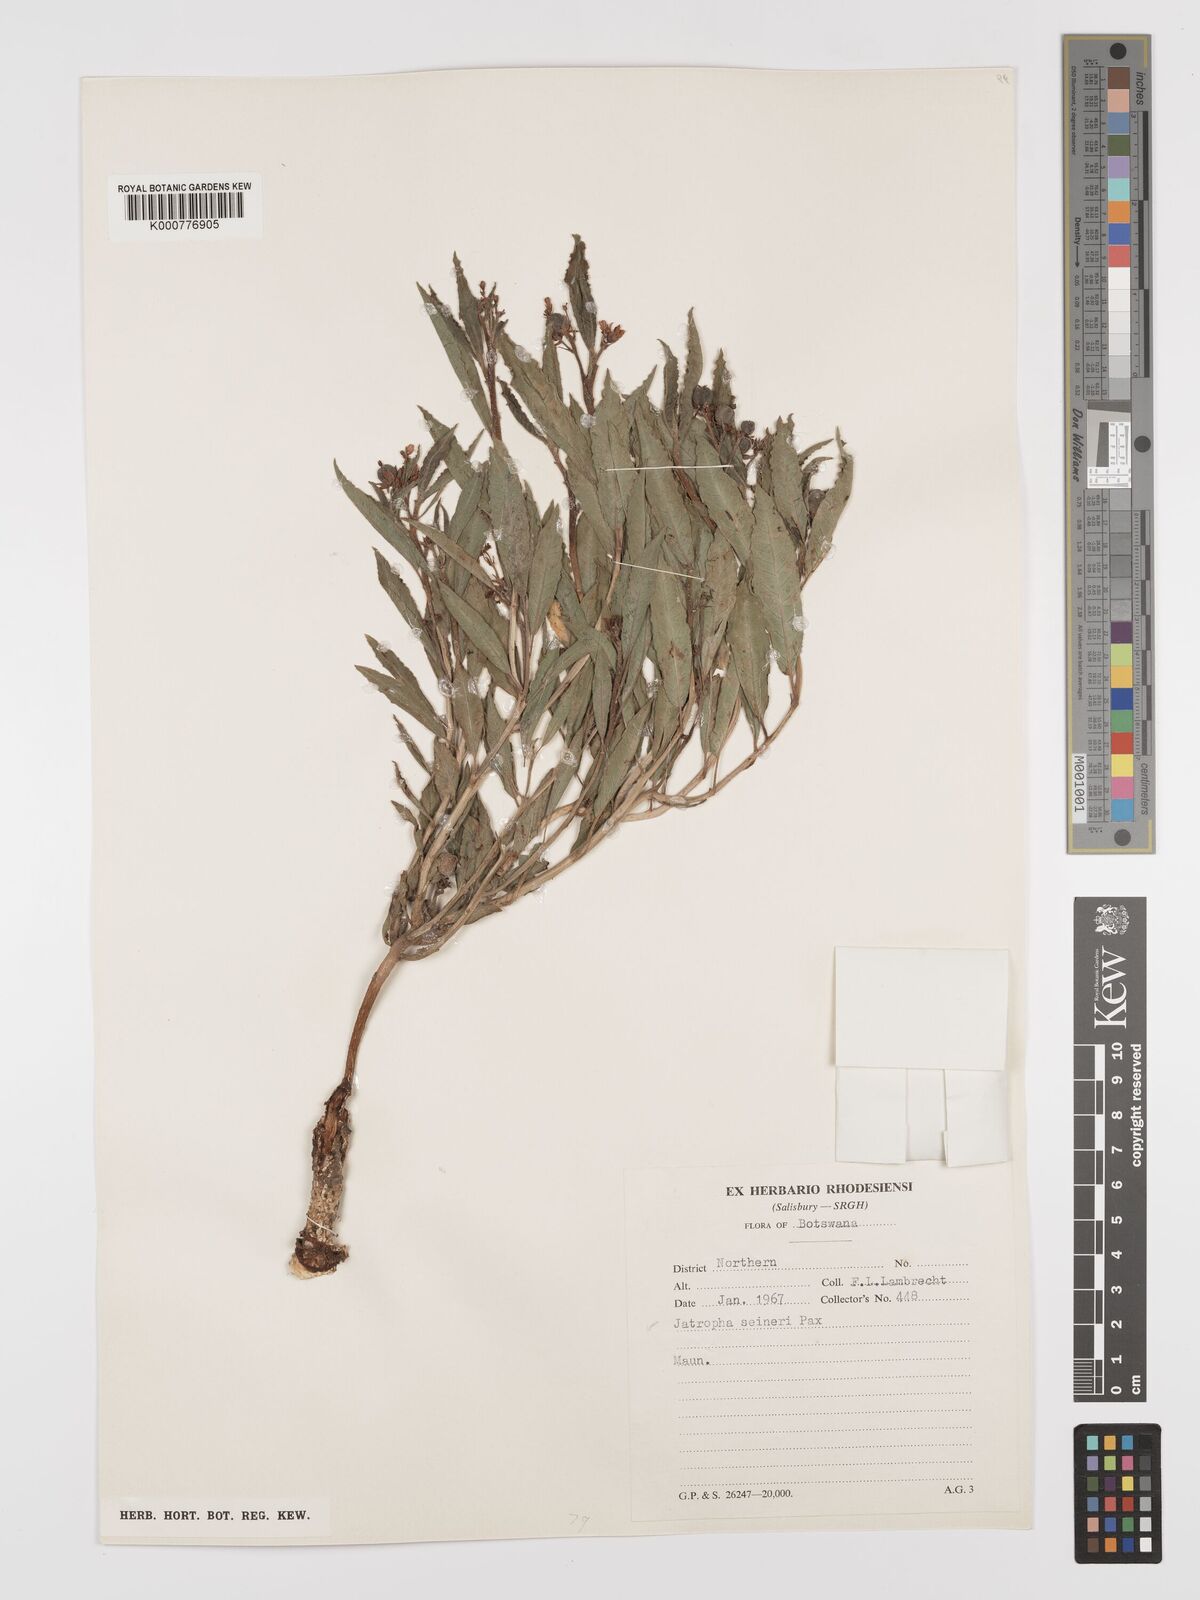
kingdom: Plantae
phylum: Tracheophyta
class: Magnoliopsida
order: Malpighiales
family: Euphorbiaceae
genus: Jatropha
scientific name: Jatropha seineri
